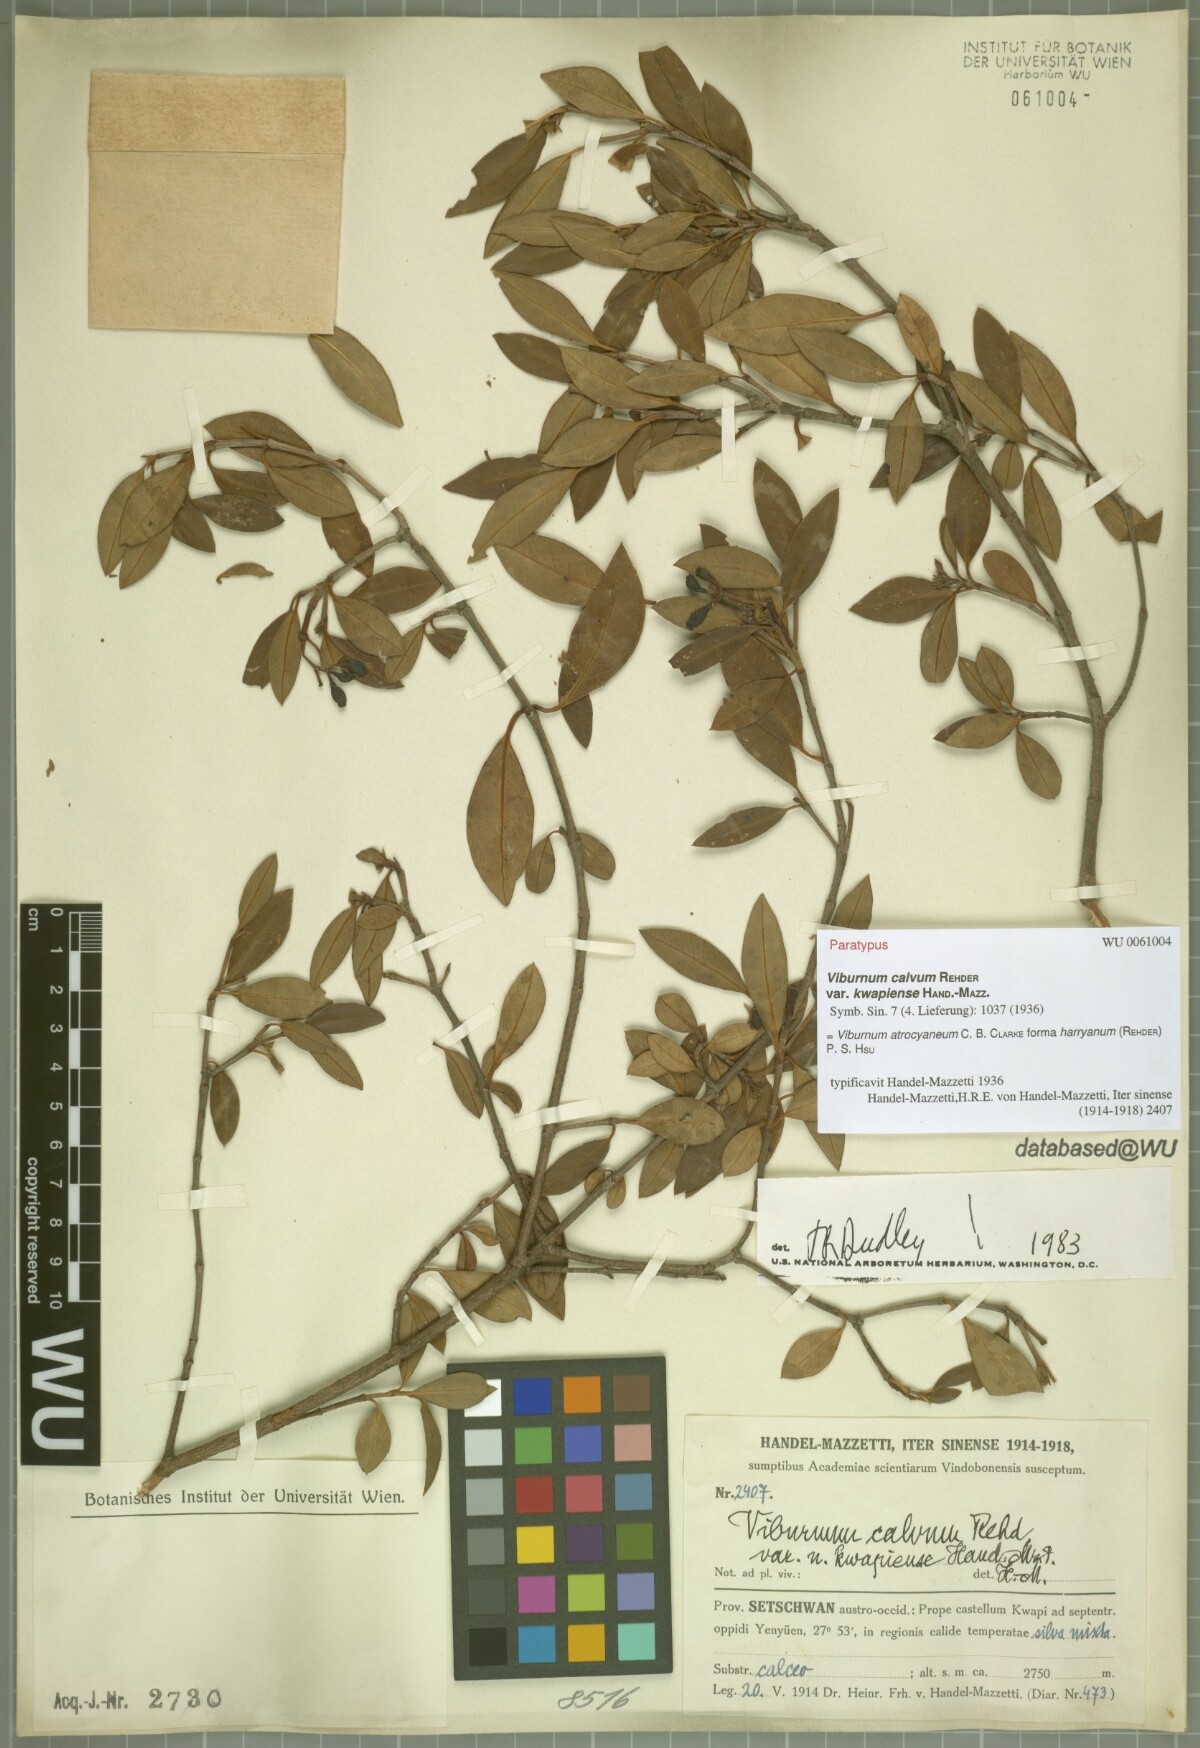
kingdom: Plantae
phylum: Tracheophyta
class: Magnoliopsida
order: Dipsacales
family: Viburnaceae
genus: Viburnum
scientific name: Viburnum atrocyaneum
